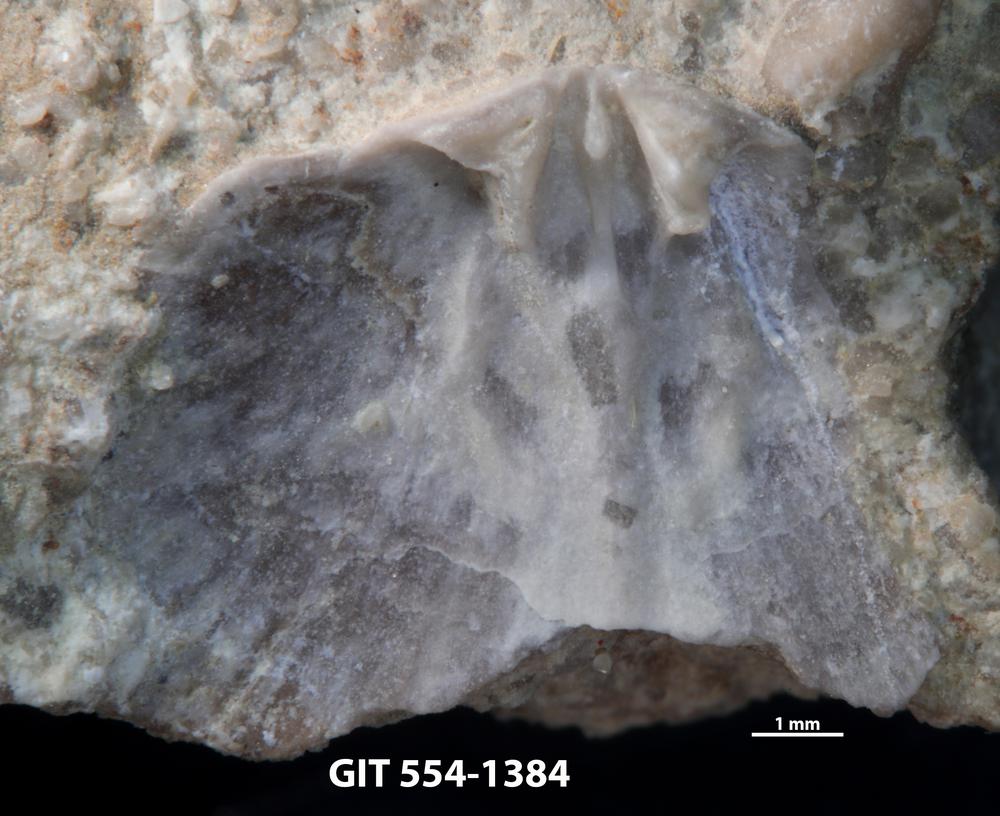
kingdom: Animalia
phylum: Brachiopoda
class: Rhynchonellata
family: Dalmanellidae
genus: Dalmanella
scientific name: Dalmanella cyclica
